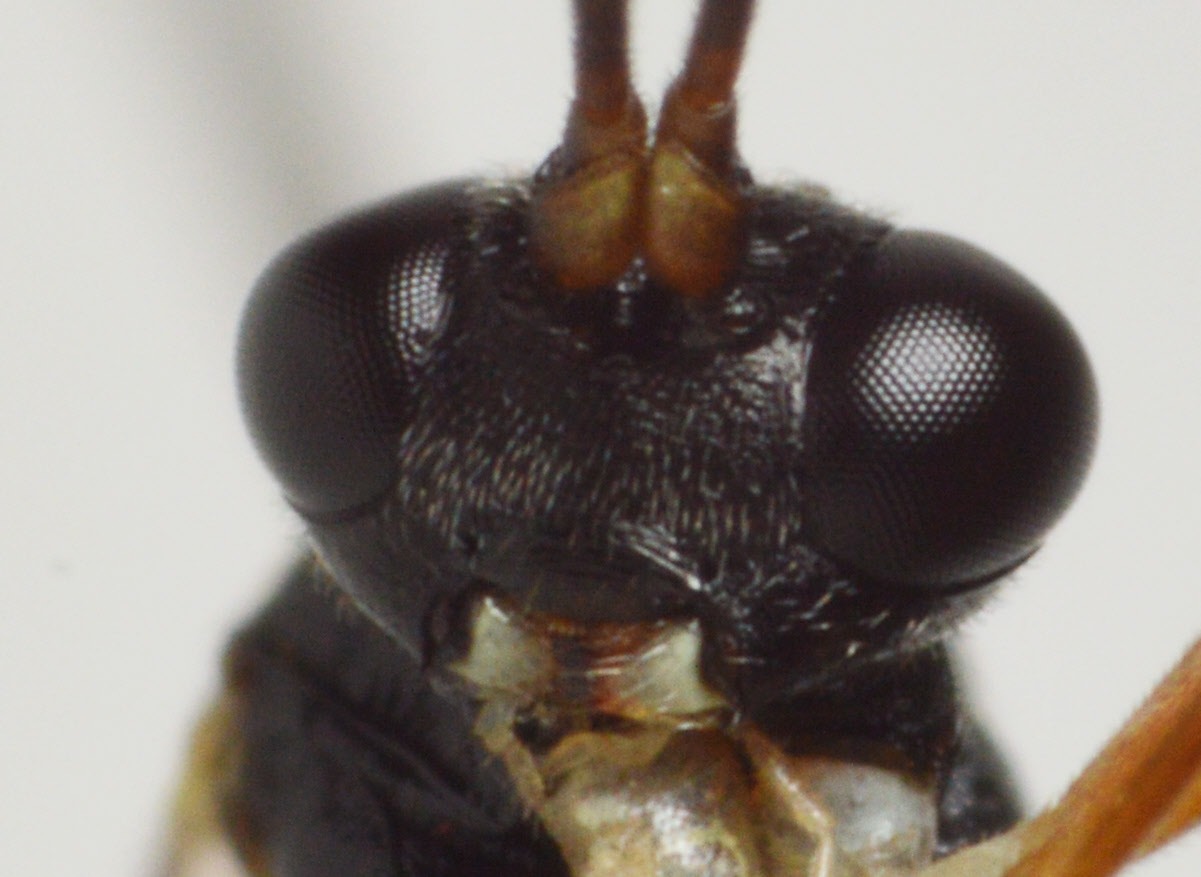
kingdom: Animalia
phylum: Arthropoda
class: Insecta
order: Hymenoptera
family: Ichneumonidae
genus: Dichrogaster
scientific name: Dichrogaster liostylus
